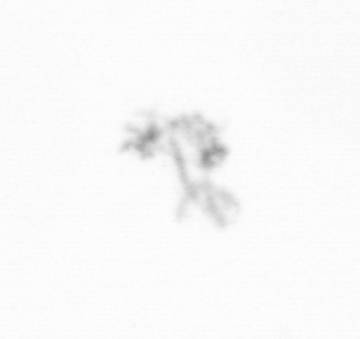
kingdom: Chromista
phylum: Ochrophyta
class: Bacillariophyceae
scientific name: Bacillariophyceae
